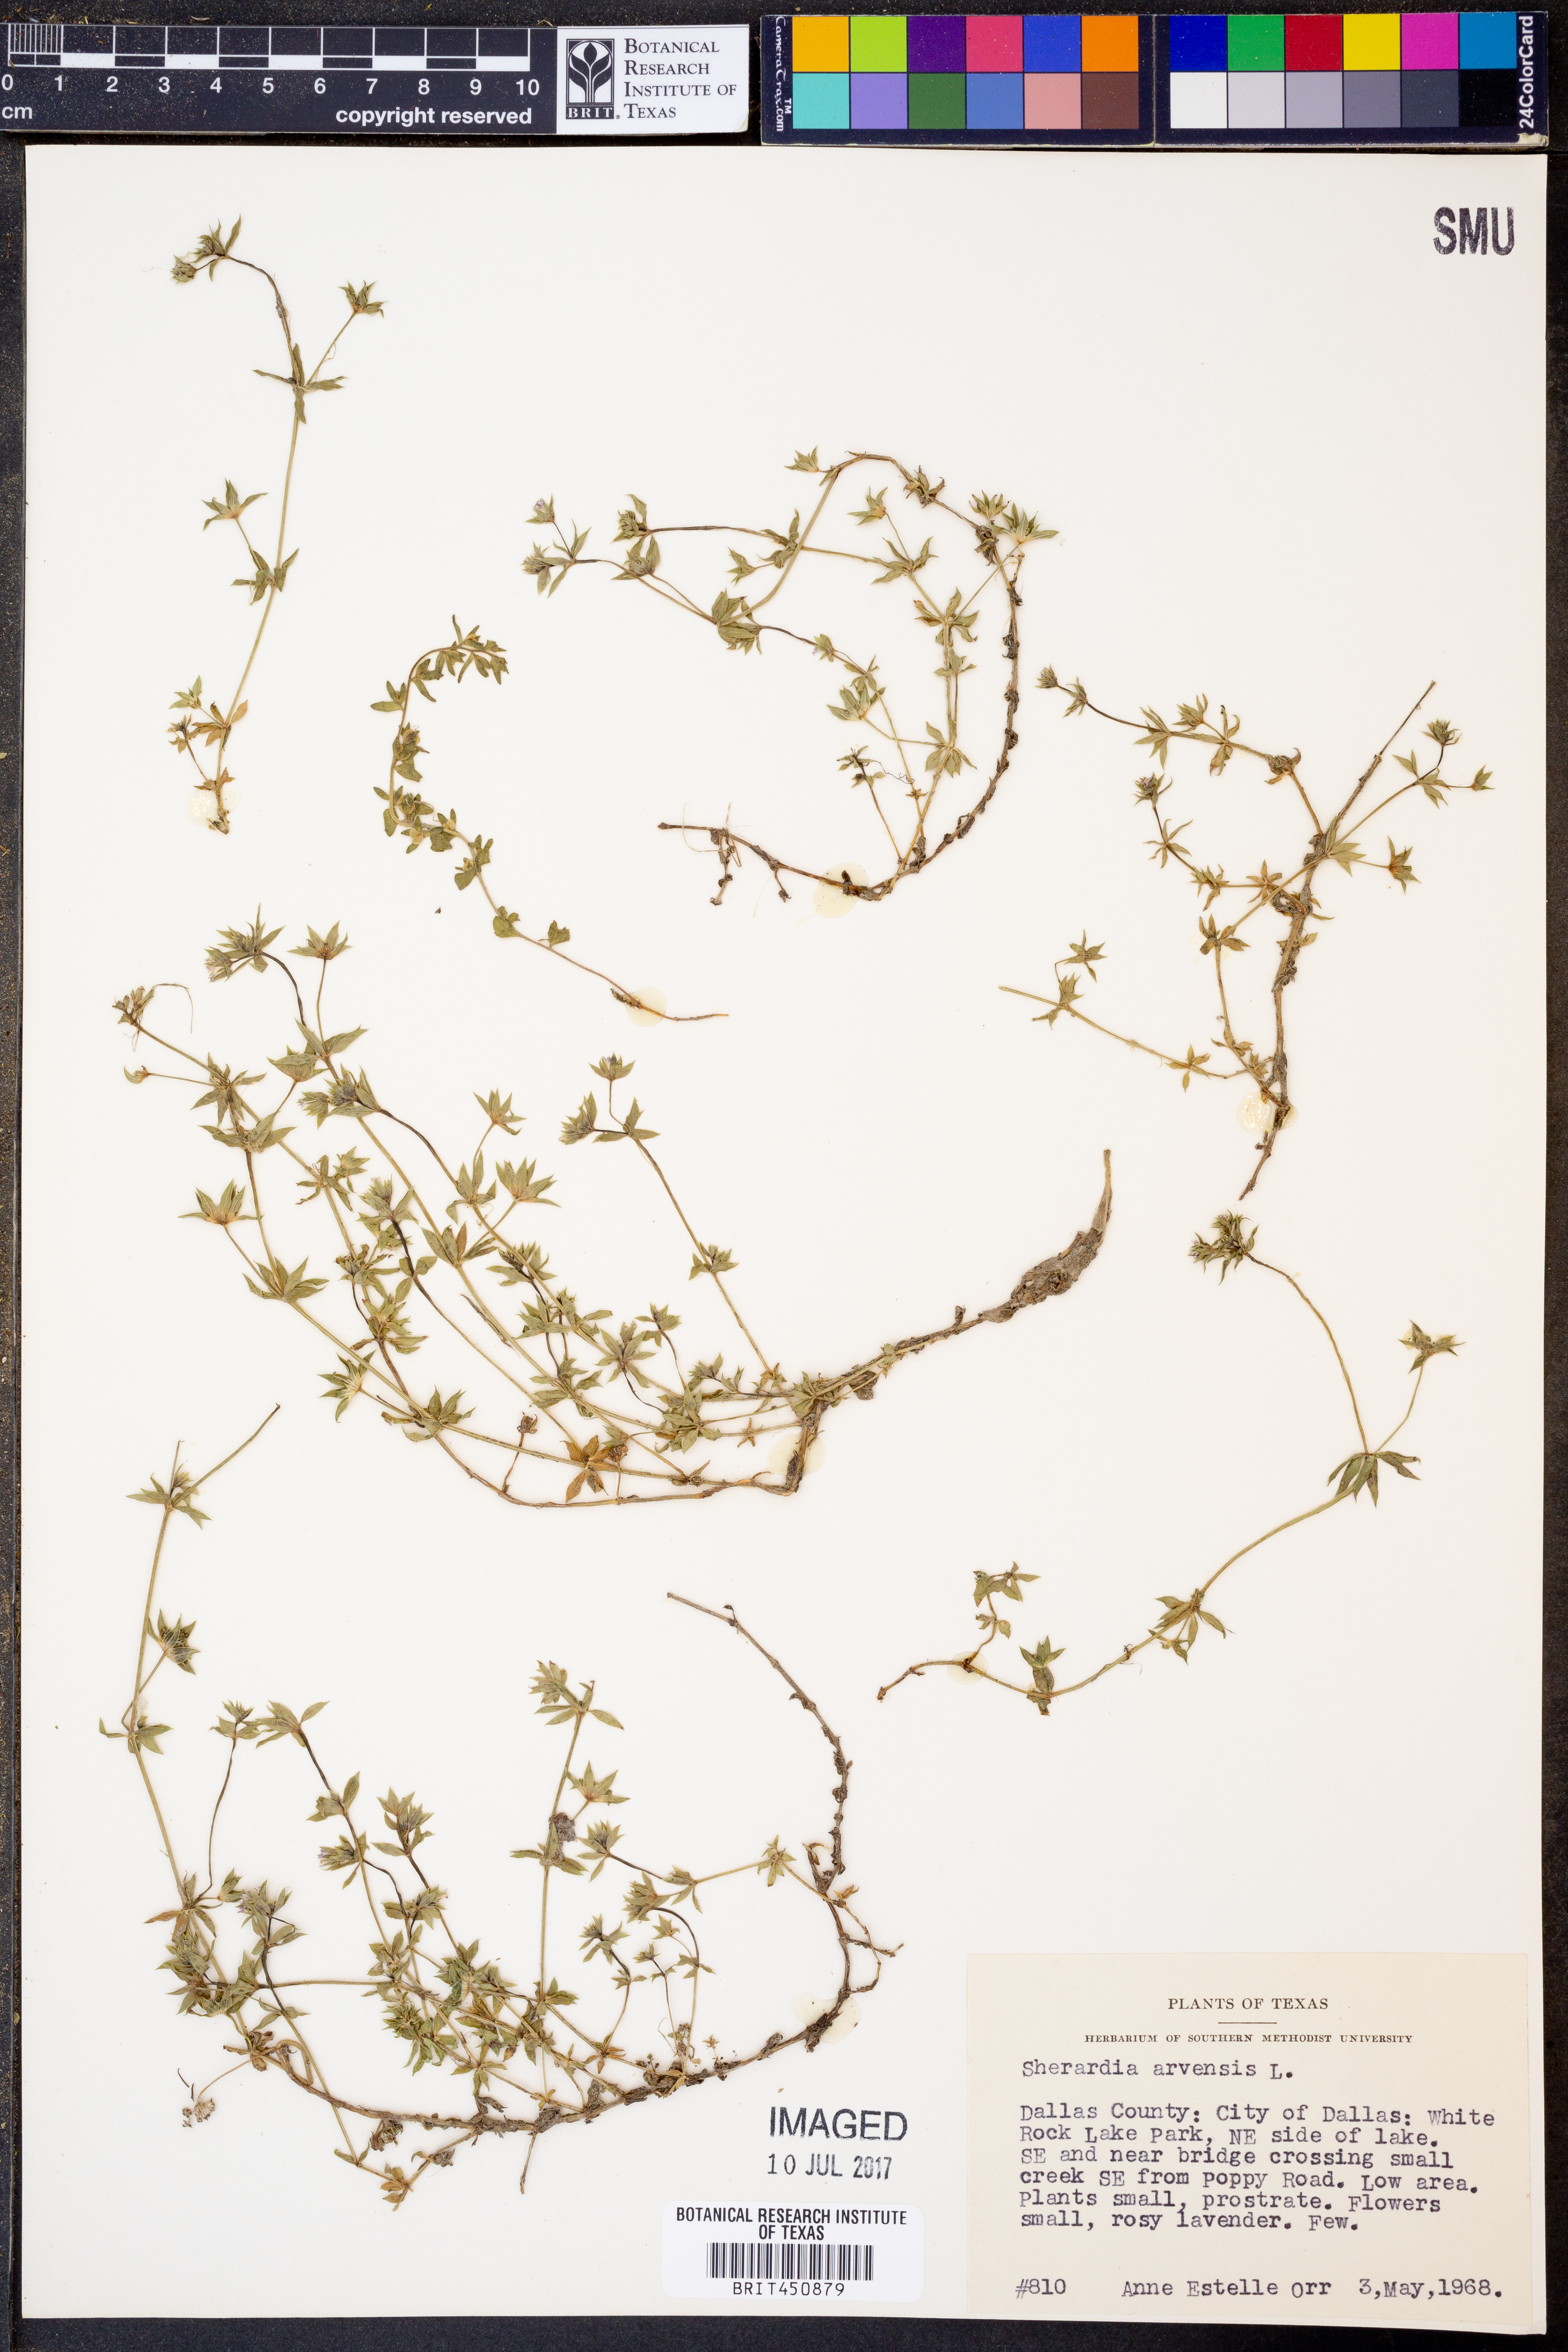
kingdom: Plantae
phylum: Tracheophyta
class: Magnoliopsida
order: Gentianales
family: Rubiaceae
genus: Sherardia
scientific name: Sherardia arvensis
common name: Field madder
